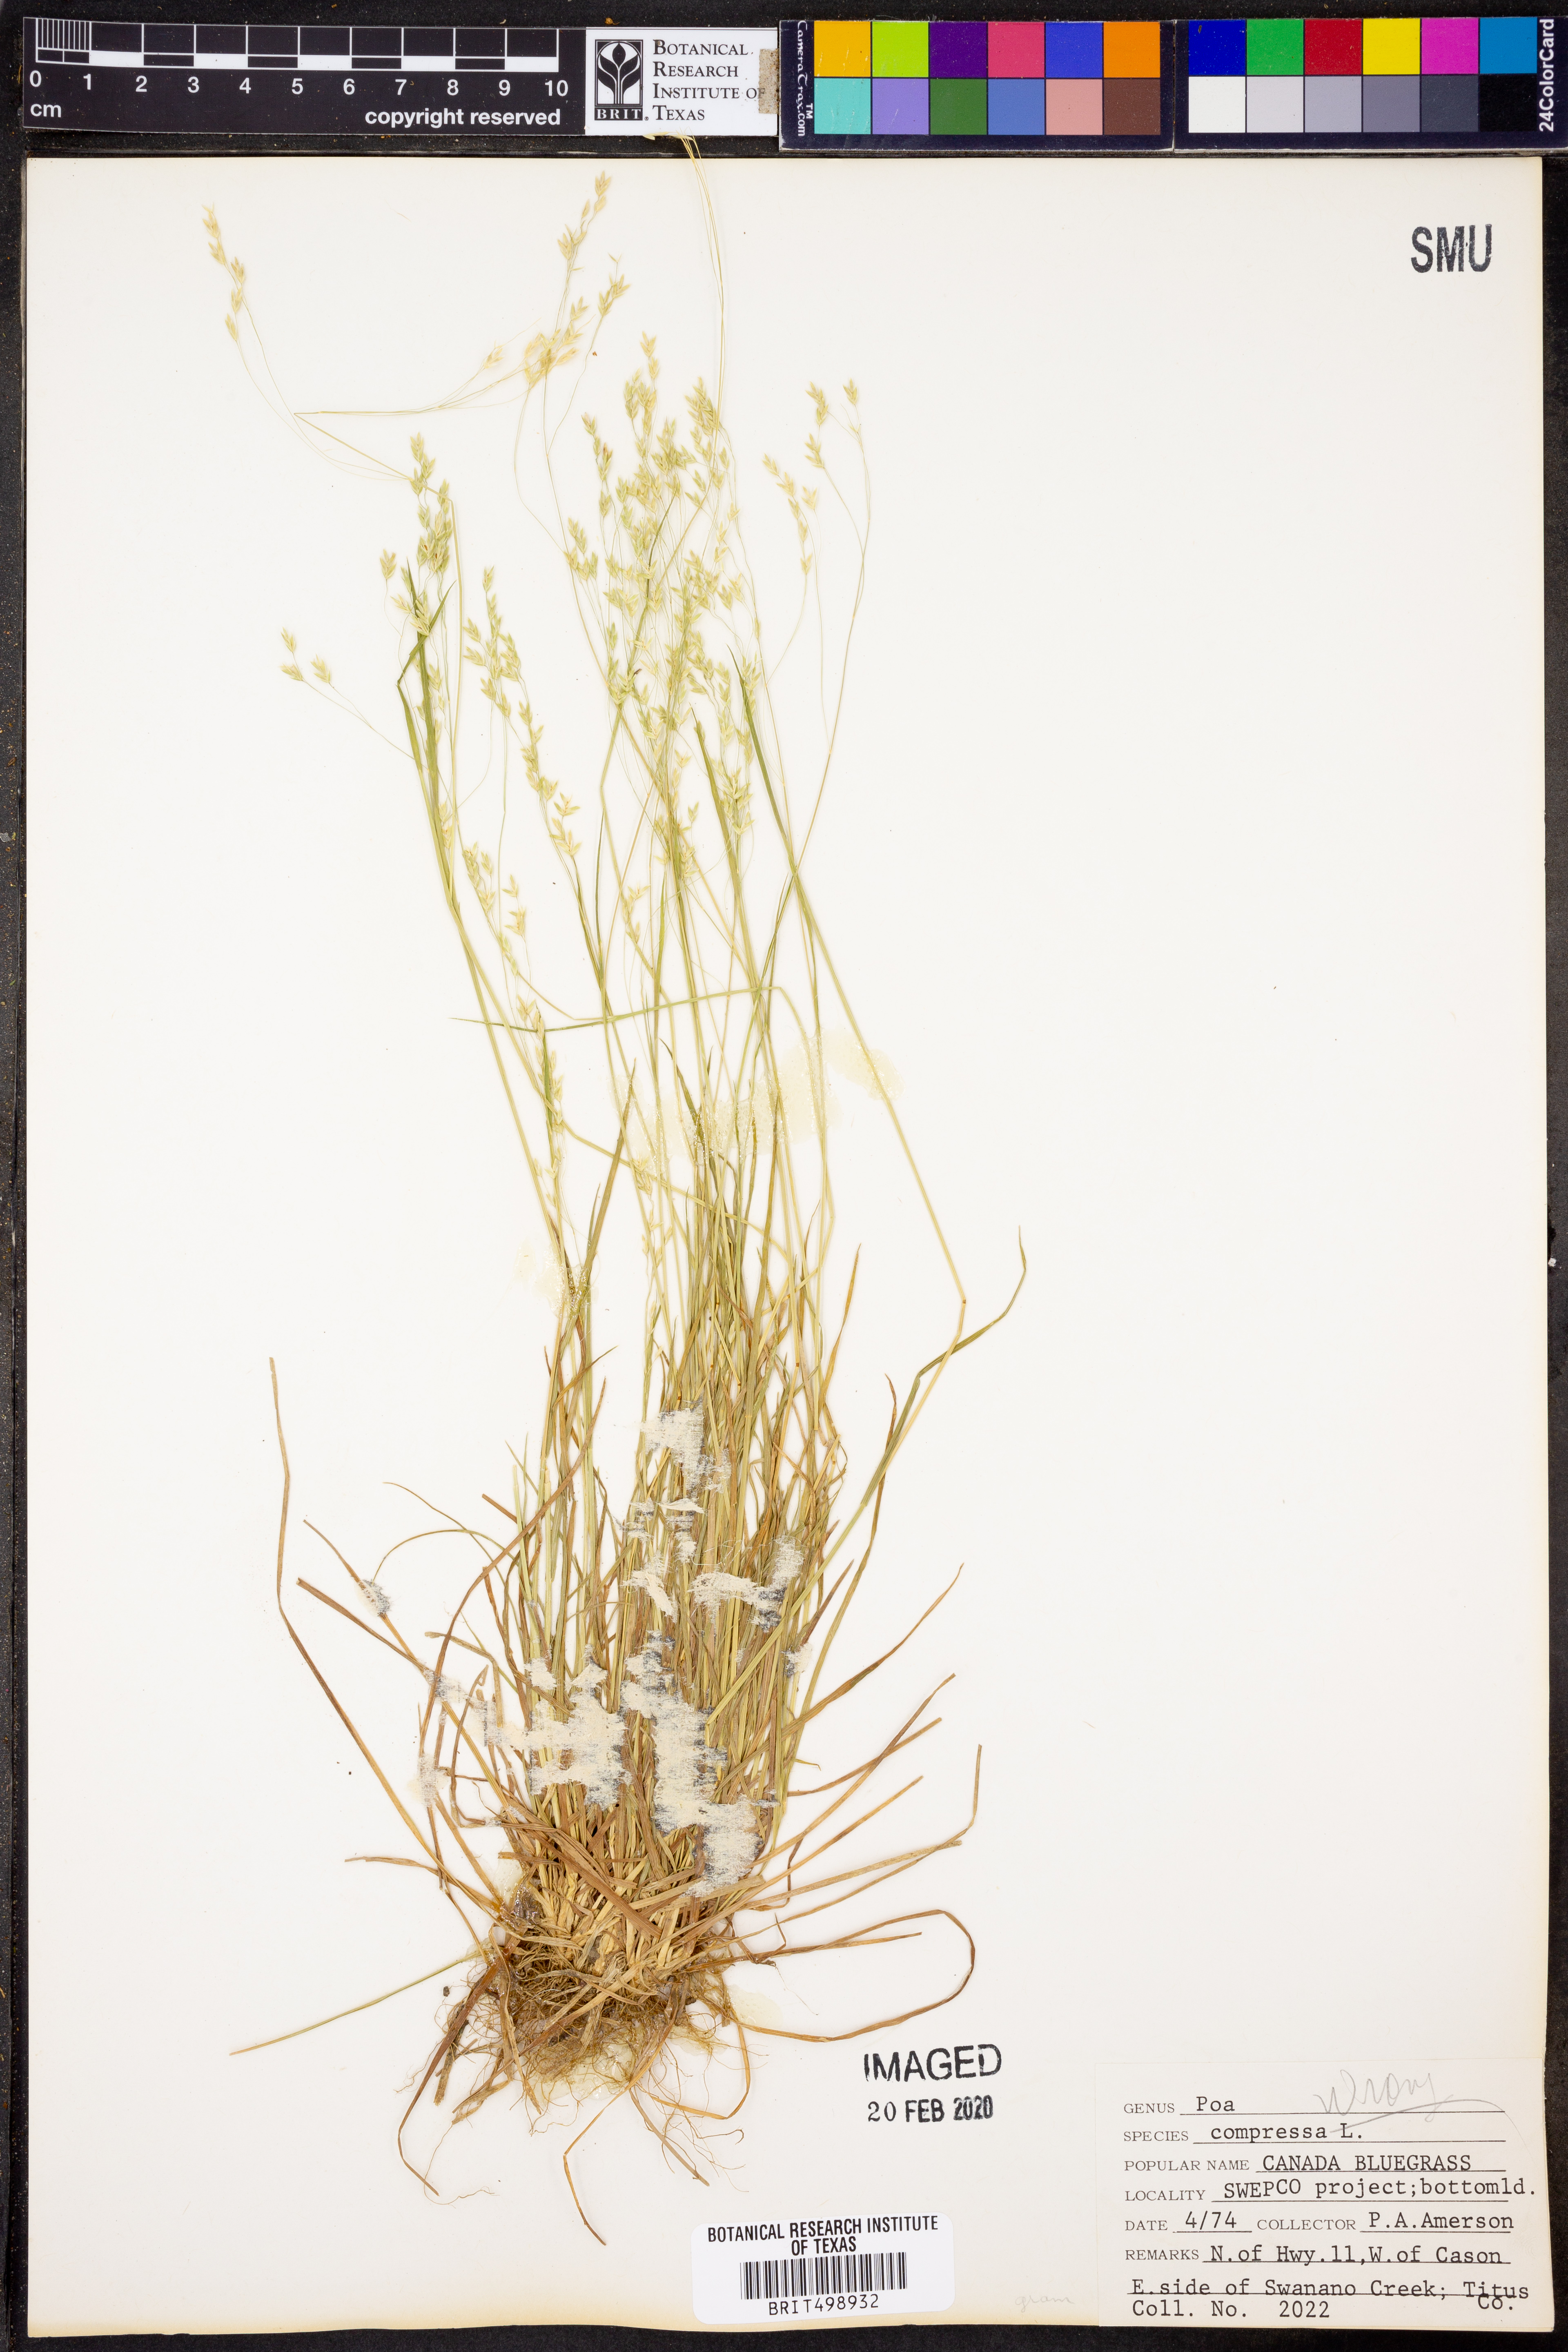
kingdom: Plantae
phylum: Tracheophyta
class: Liliopsida
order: Poales
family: Poaceae
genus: Poa
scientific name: Poa compressa
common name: Canada bluegrass
